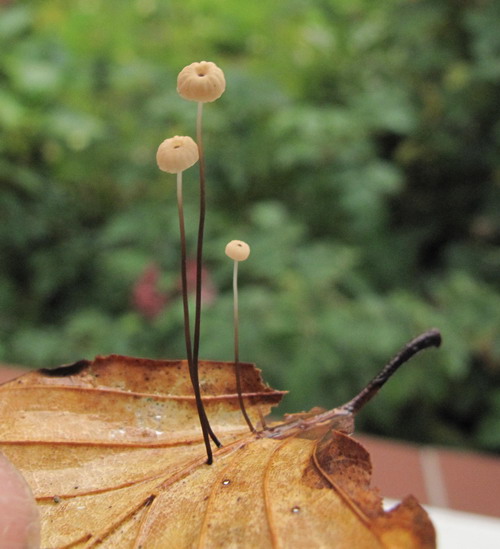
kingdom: Fungi
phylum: Basidiomycota
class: Agaricomycetes
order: Agaricales
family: Marasmiaceae
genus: Marasmius
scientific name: Marasmius bulliardii
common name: furet bruskhat
